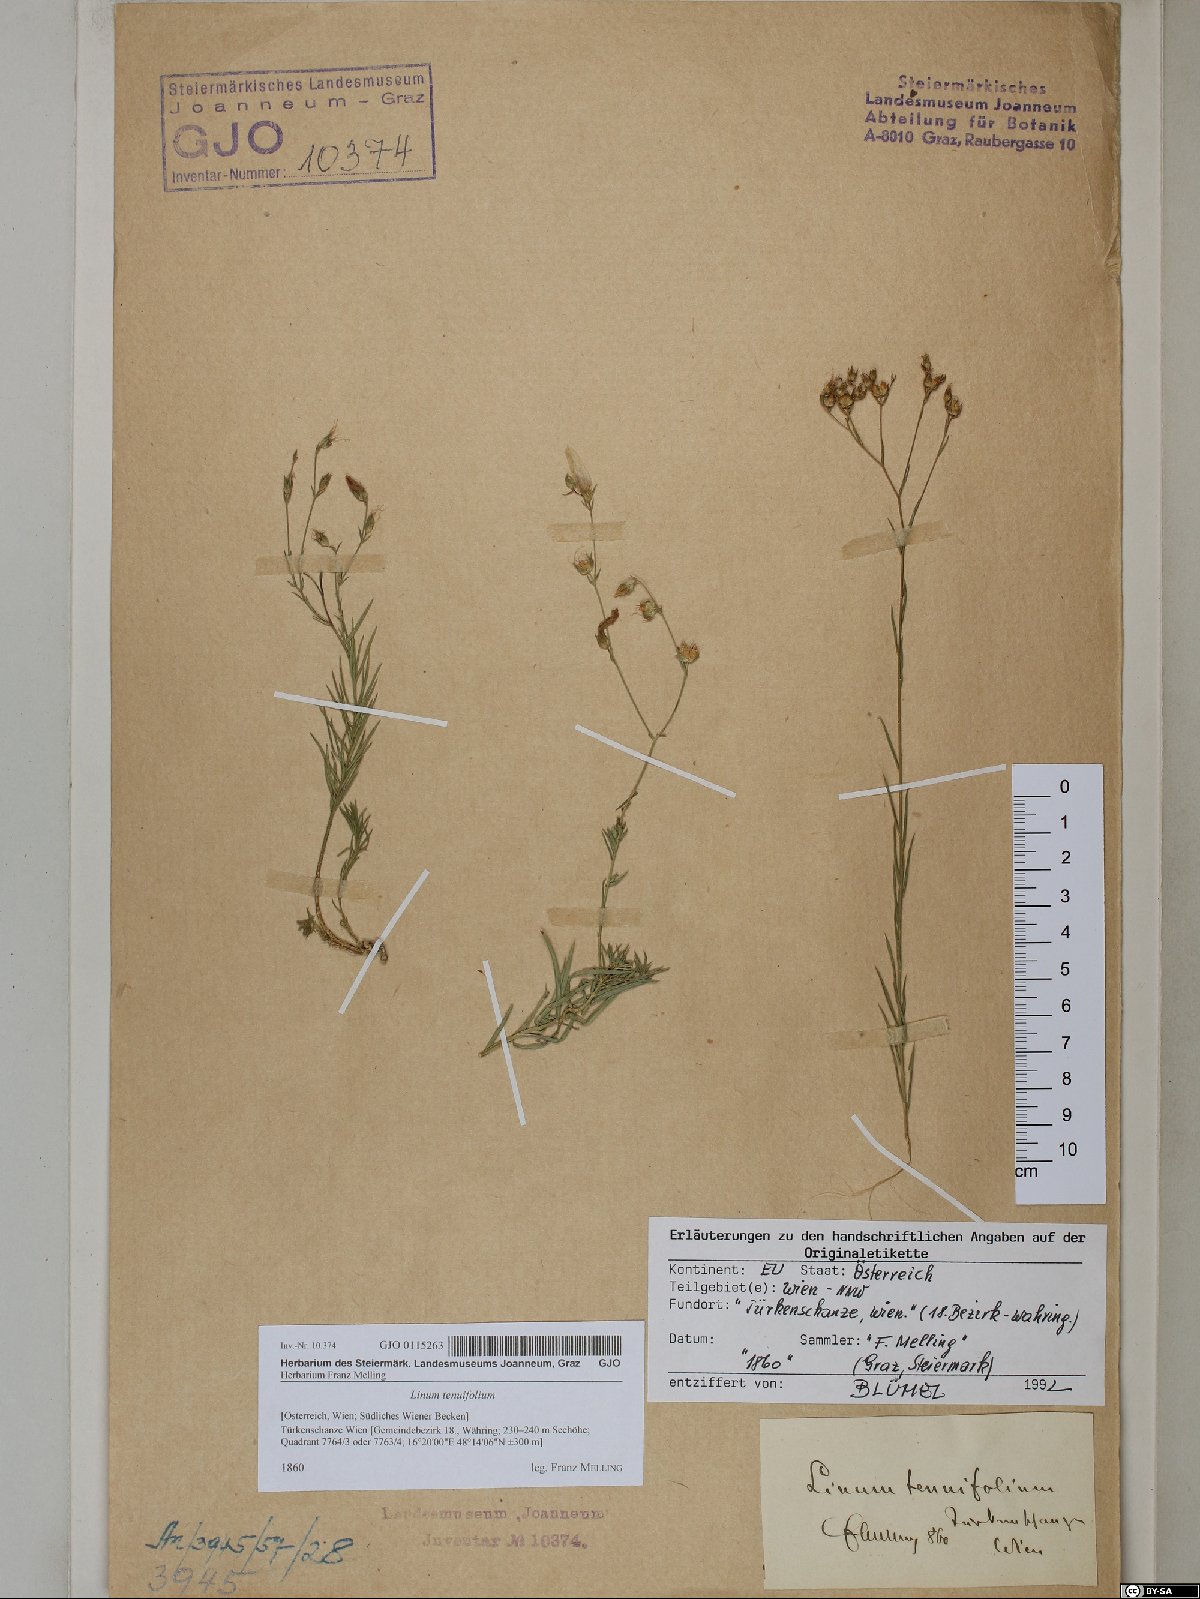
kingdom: Plantae
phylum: Tracheophyta
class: Magnoliopsida
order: Malpighiales
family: Linaceae
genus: Linum
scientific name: Linum tenuifolium
